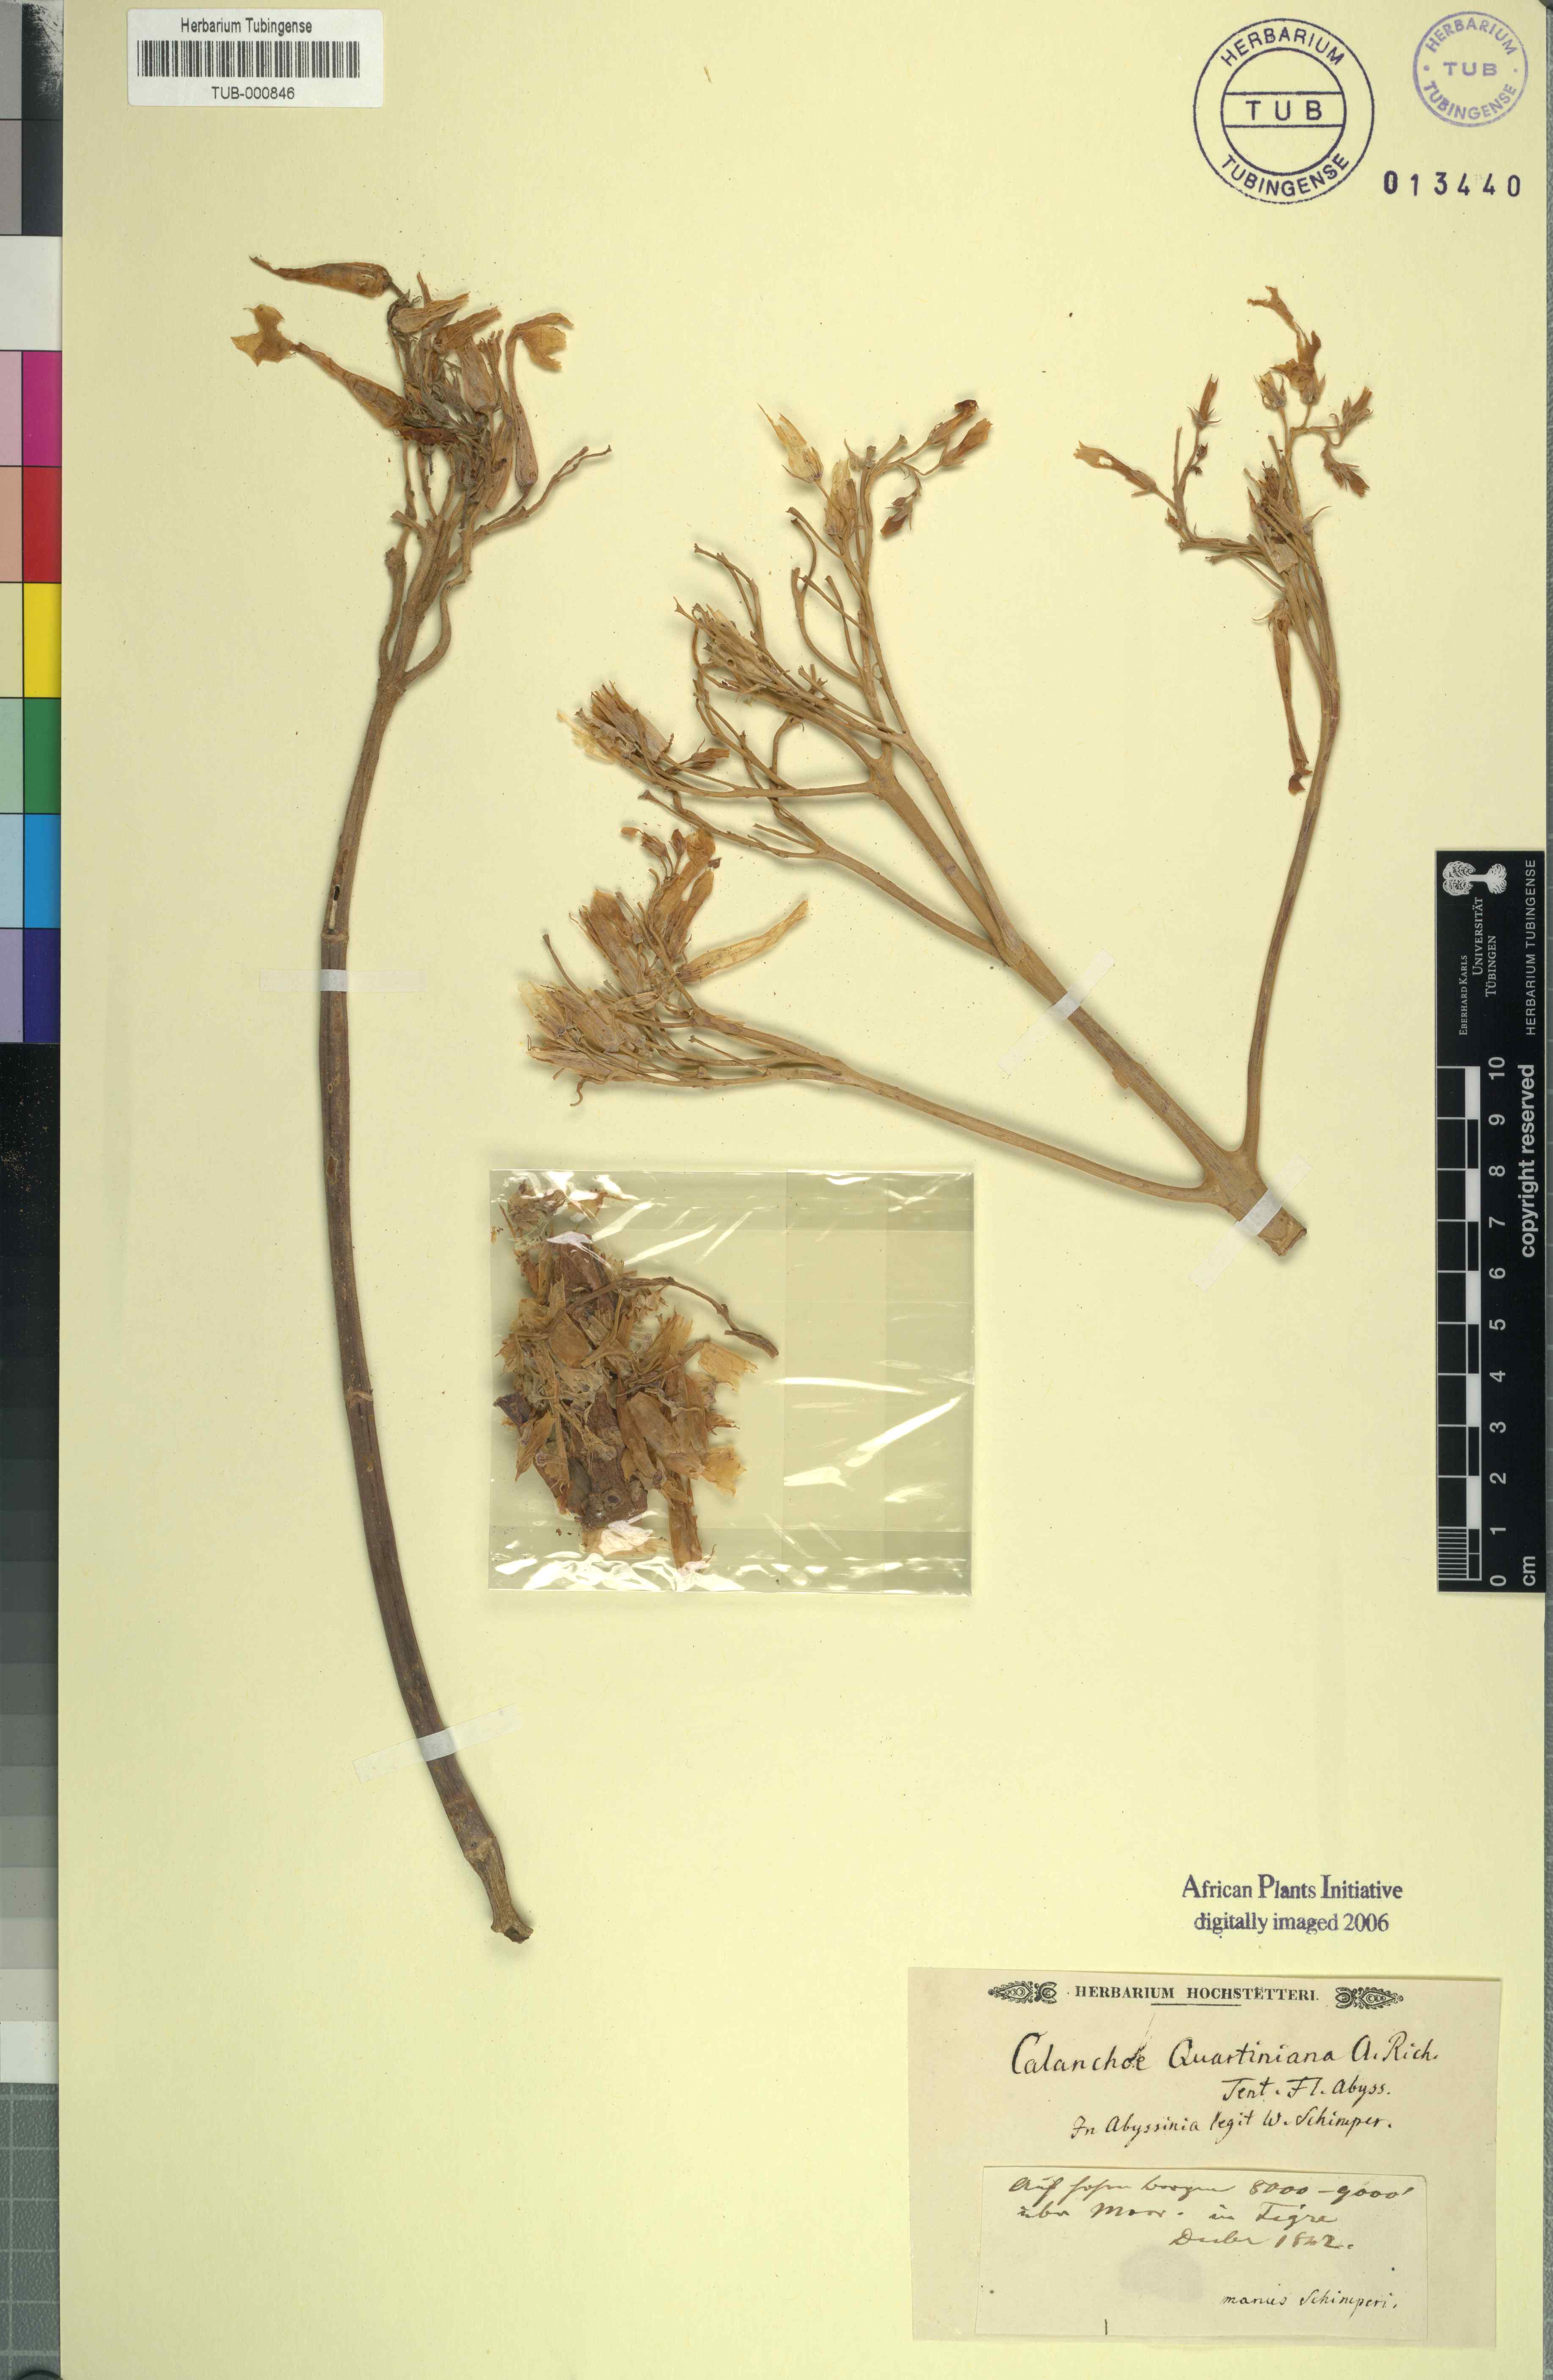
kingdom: Plantae
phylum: Tracheophyta
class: Magnoliopsida
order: Saxifragales
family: Crassulaceae
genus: Kalanchoe
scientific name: Kalanchoe quartiniana
